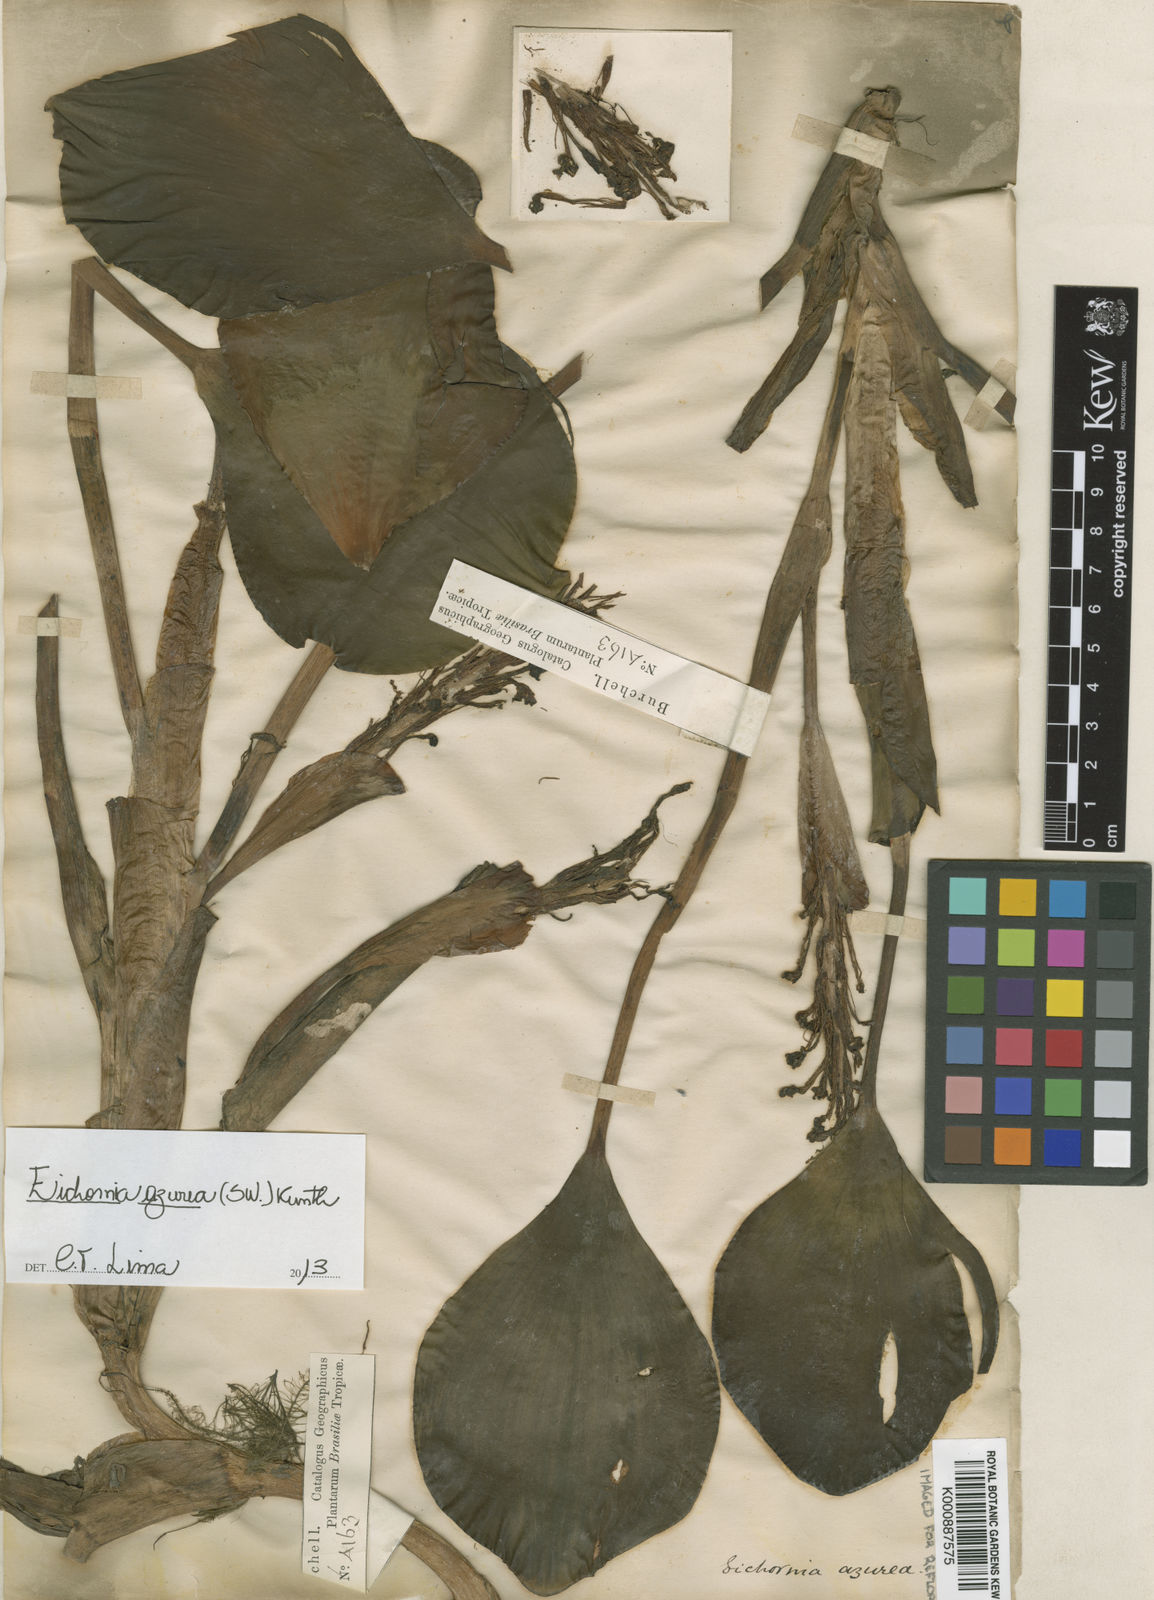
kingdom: Plantae
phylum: Tracheophyta
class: Liliopsida
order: Commelinales
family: Pontederiaceae
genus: Pontederia
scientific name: Pontederia azurea
